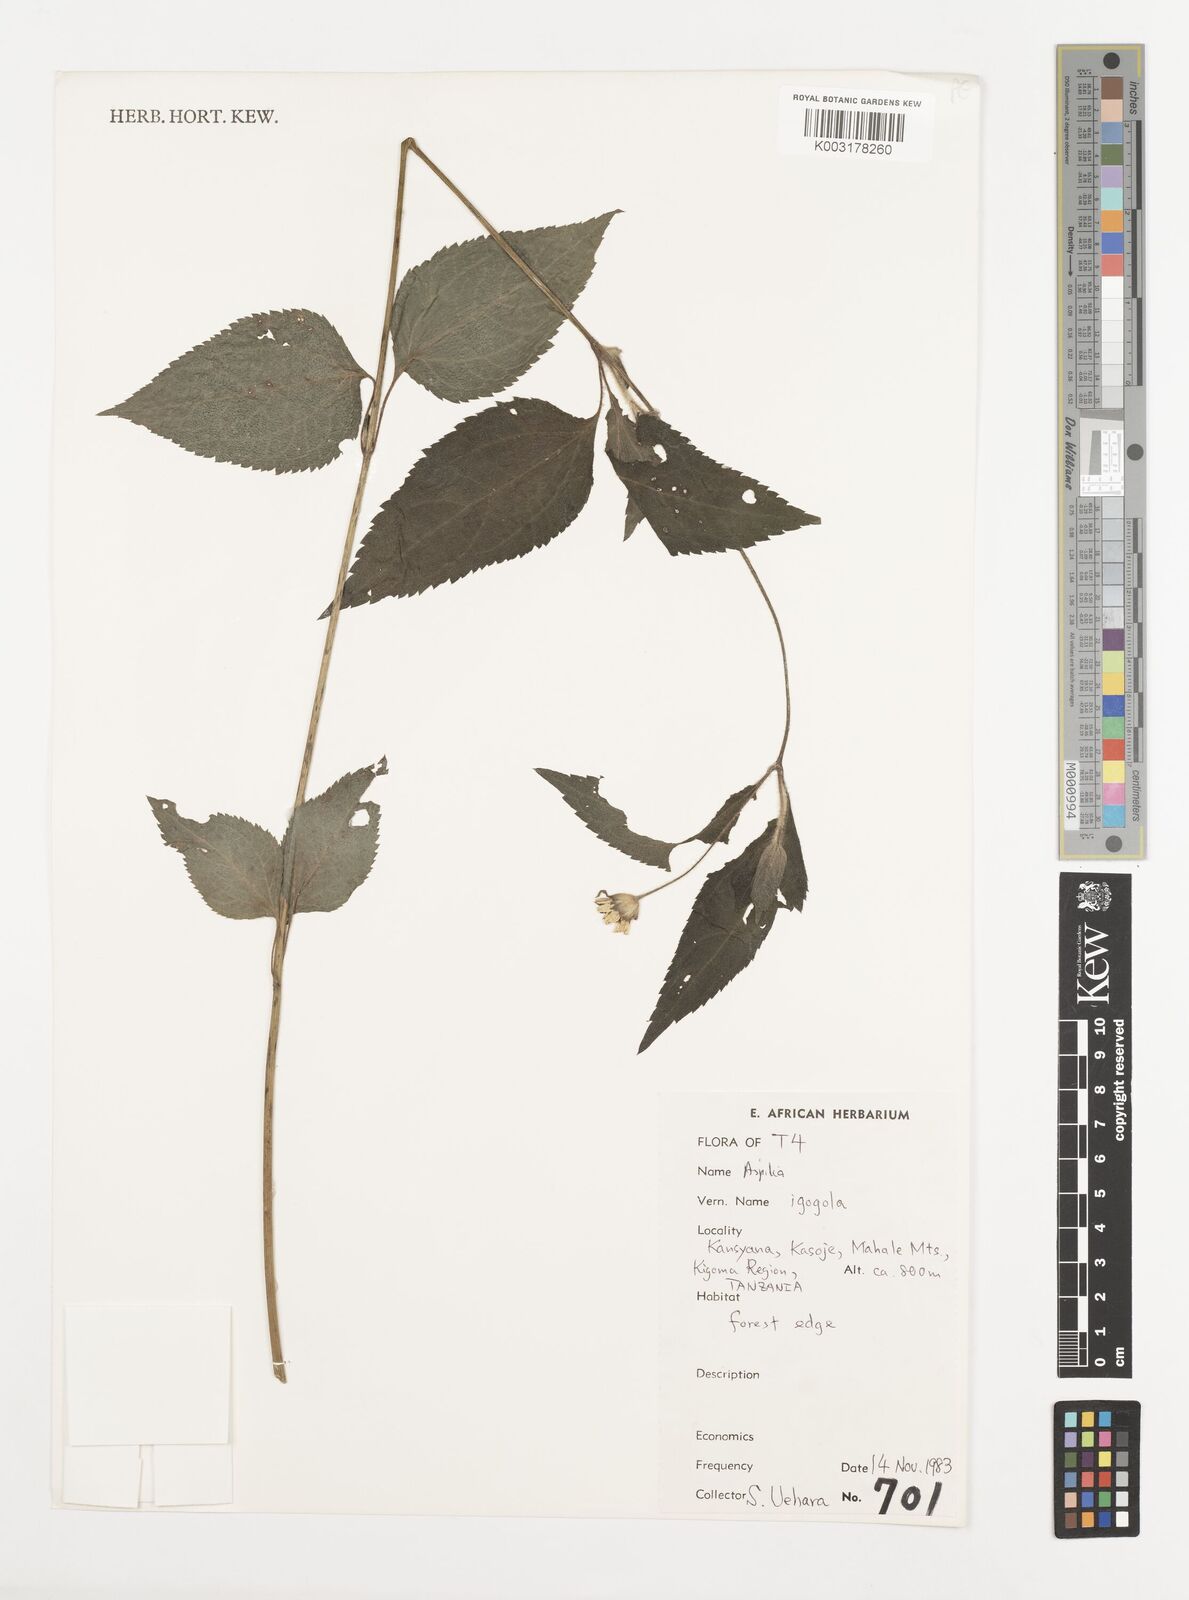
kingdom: Plantae
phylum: Tracheophyta
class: Magnoliopsida
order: Asterales
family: Asteraceae
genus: Aspilia
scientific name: Aspilia mossambicensis
